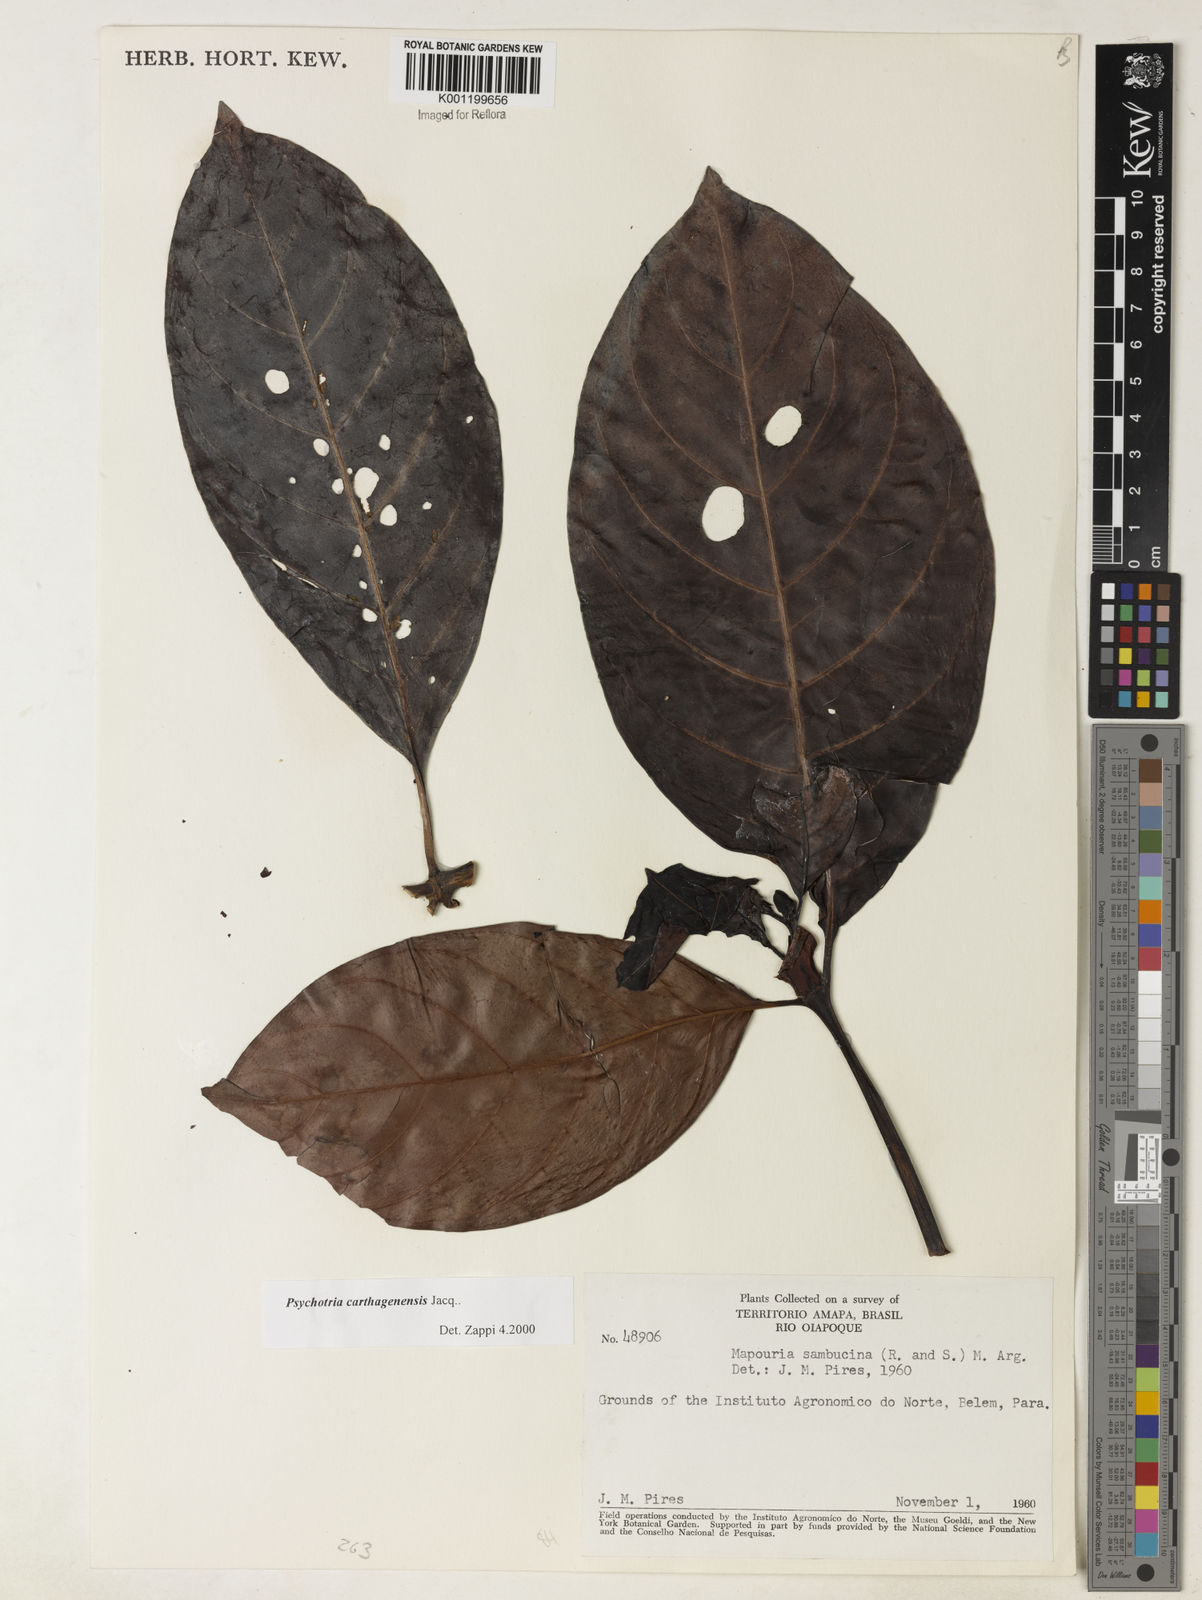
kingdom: Plantae
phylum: Tracheophyta
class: Magnoliopsida
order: Gentianales
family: Rubiaceae
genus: Psychotria
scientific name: Psychotria carthagenensis
